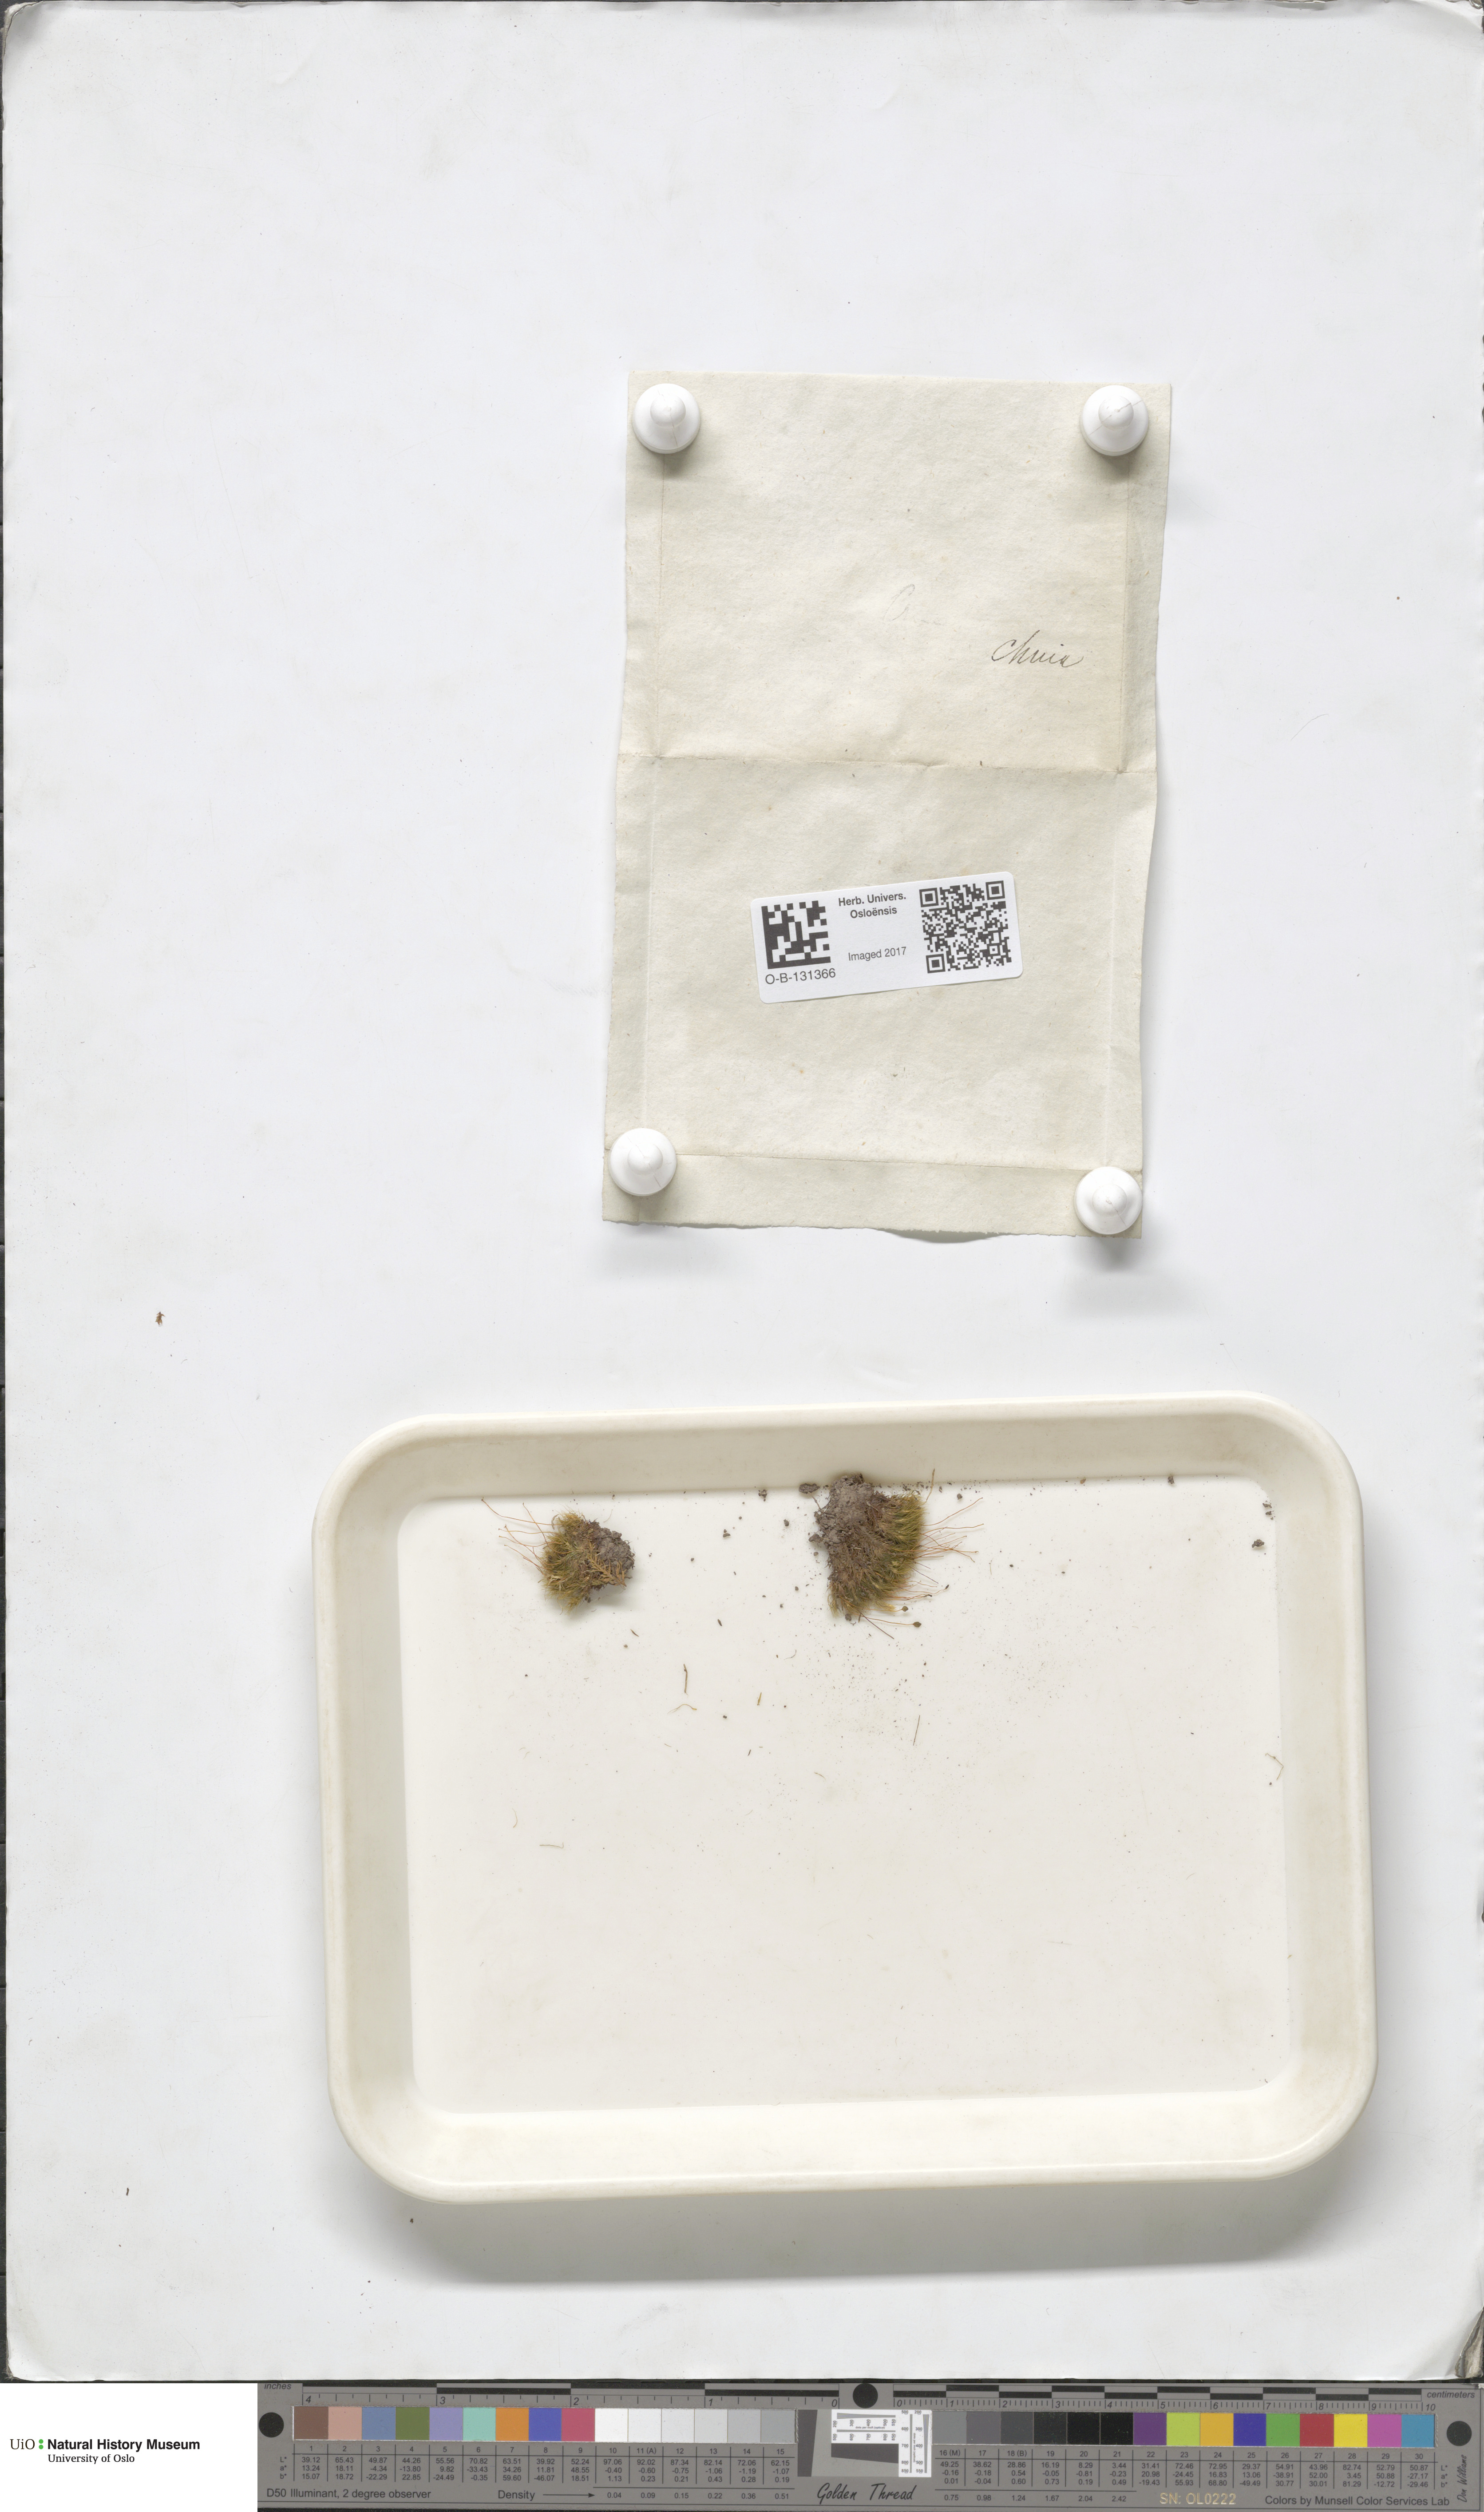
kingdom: Plantae
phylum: Bryophyta
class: Bryopsida
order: Bartramiales
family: Bartramiaceae
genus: Bartramia
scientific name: Bartramia
